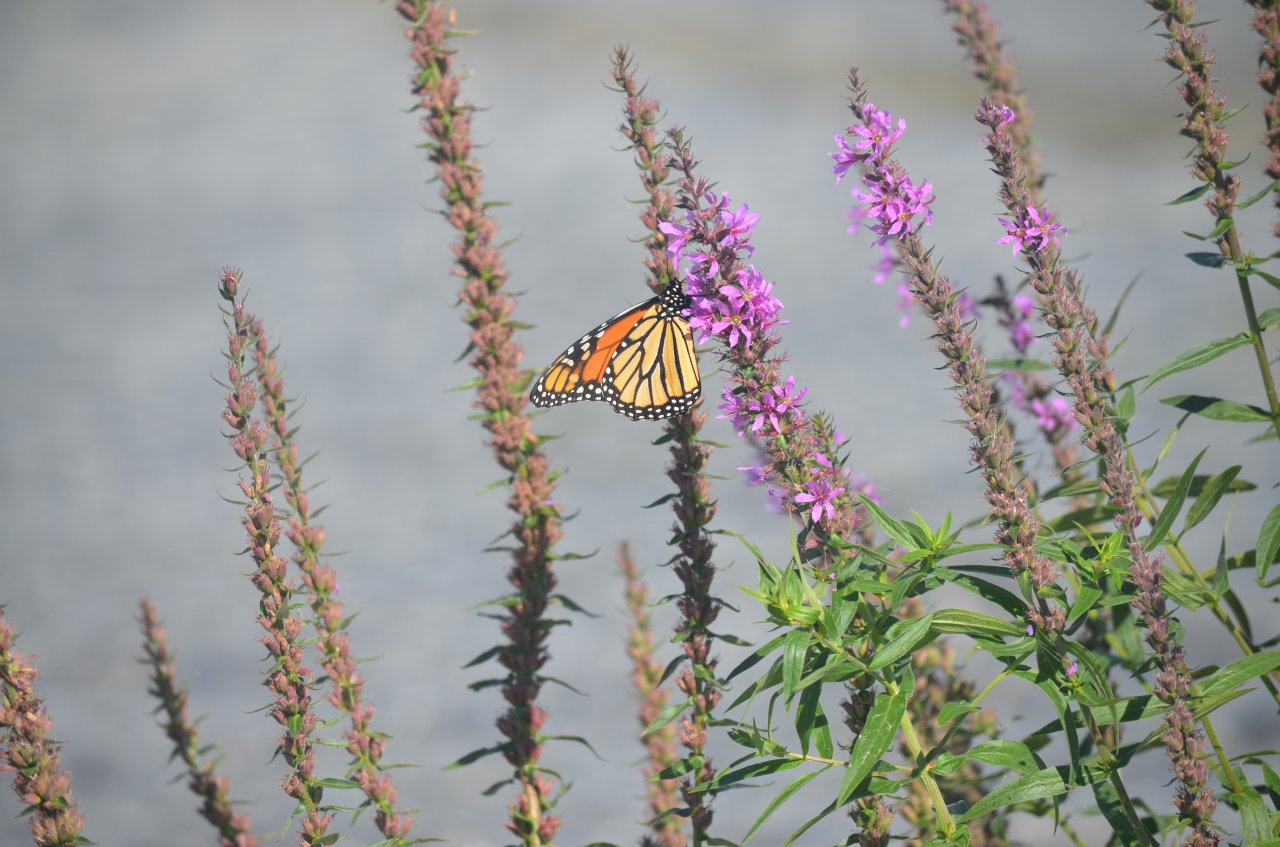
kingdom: Animalia
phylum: Arthropoda
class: Insecta
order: Lepidoptera
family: Nymphalidae
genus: Danaus
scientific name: Danaus plexippus
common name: Monarch
